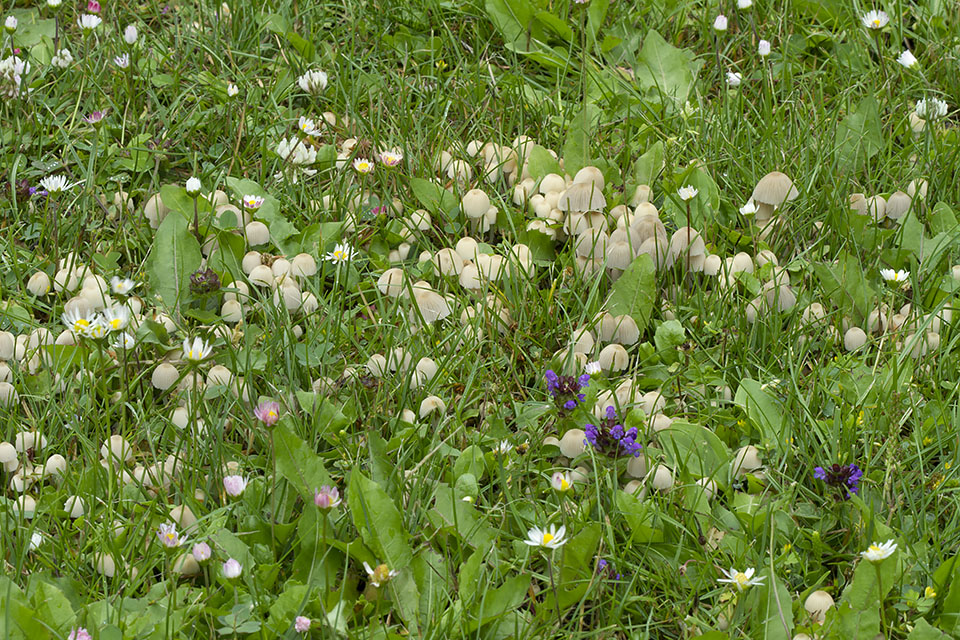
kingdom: Fungi
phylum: Basidiomycota
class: Agaricomycetes
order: Agaricales
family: Psathyrellaceae
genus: Coprinellus
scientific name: Coprinellus disseminatus
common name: bredsået blækhat
